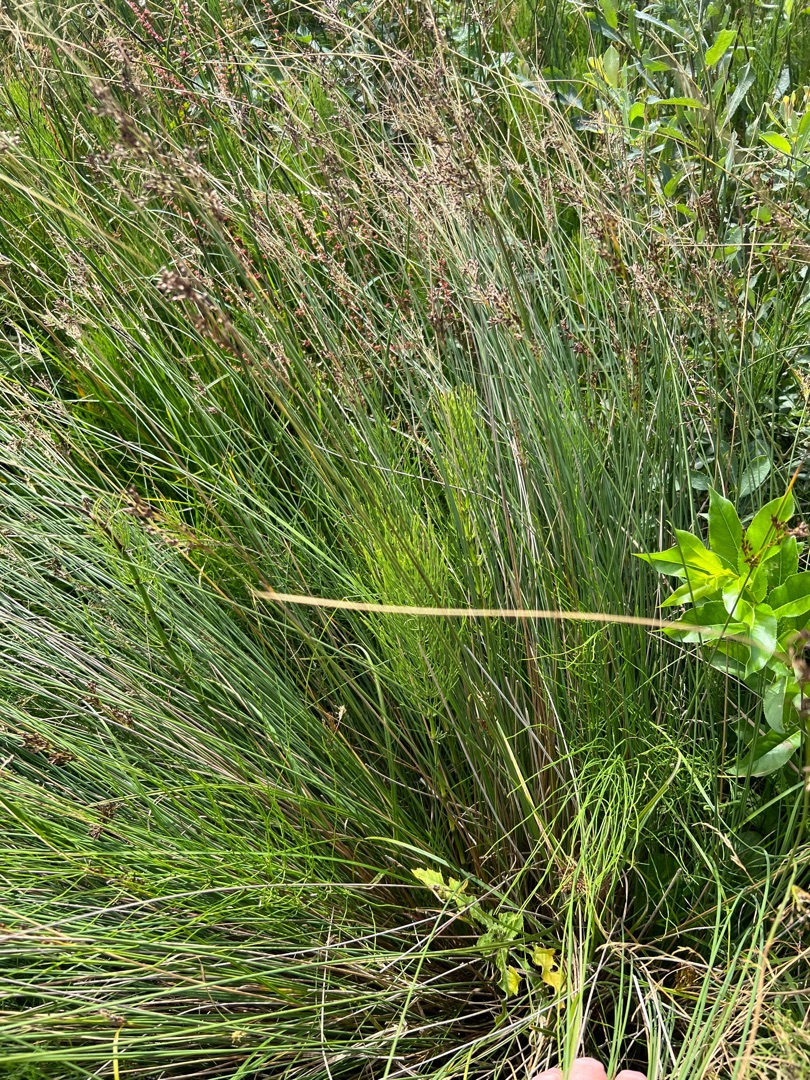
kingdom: Plantae
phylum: Tracheophyta
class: Liliopsida
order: Poales
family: Juncaceae
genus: Juncus
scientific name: Juncus inflexus
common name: Blågrå siv
